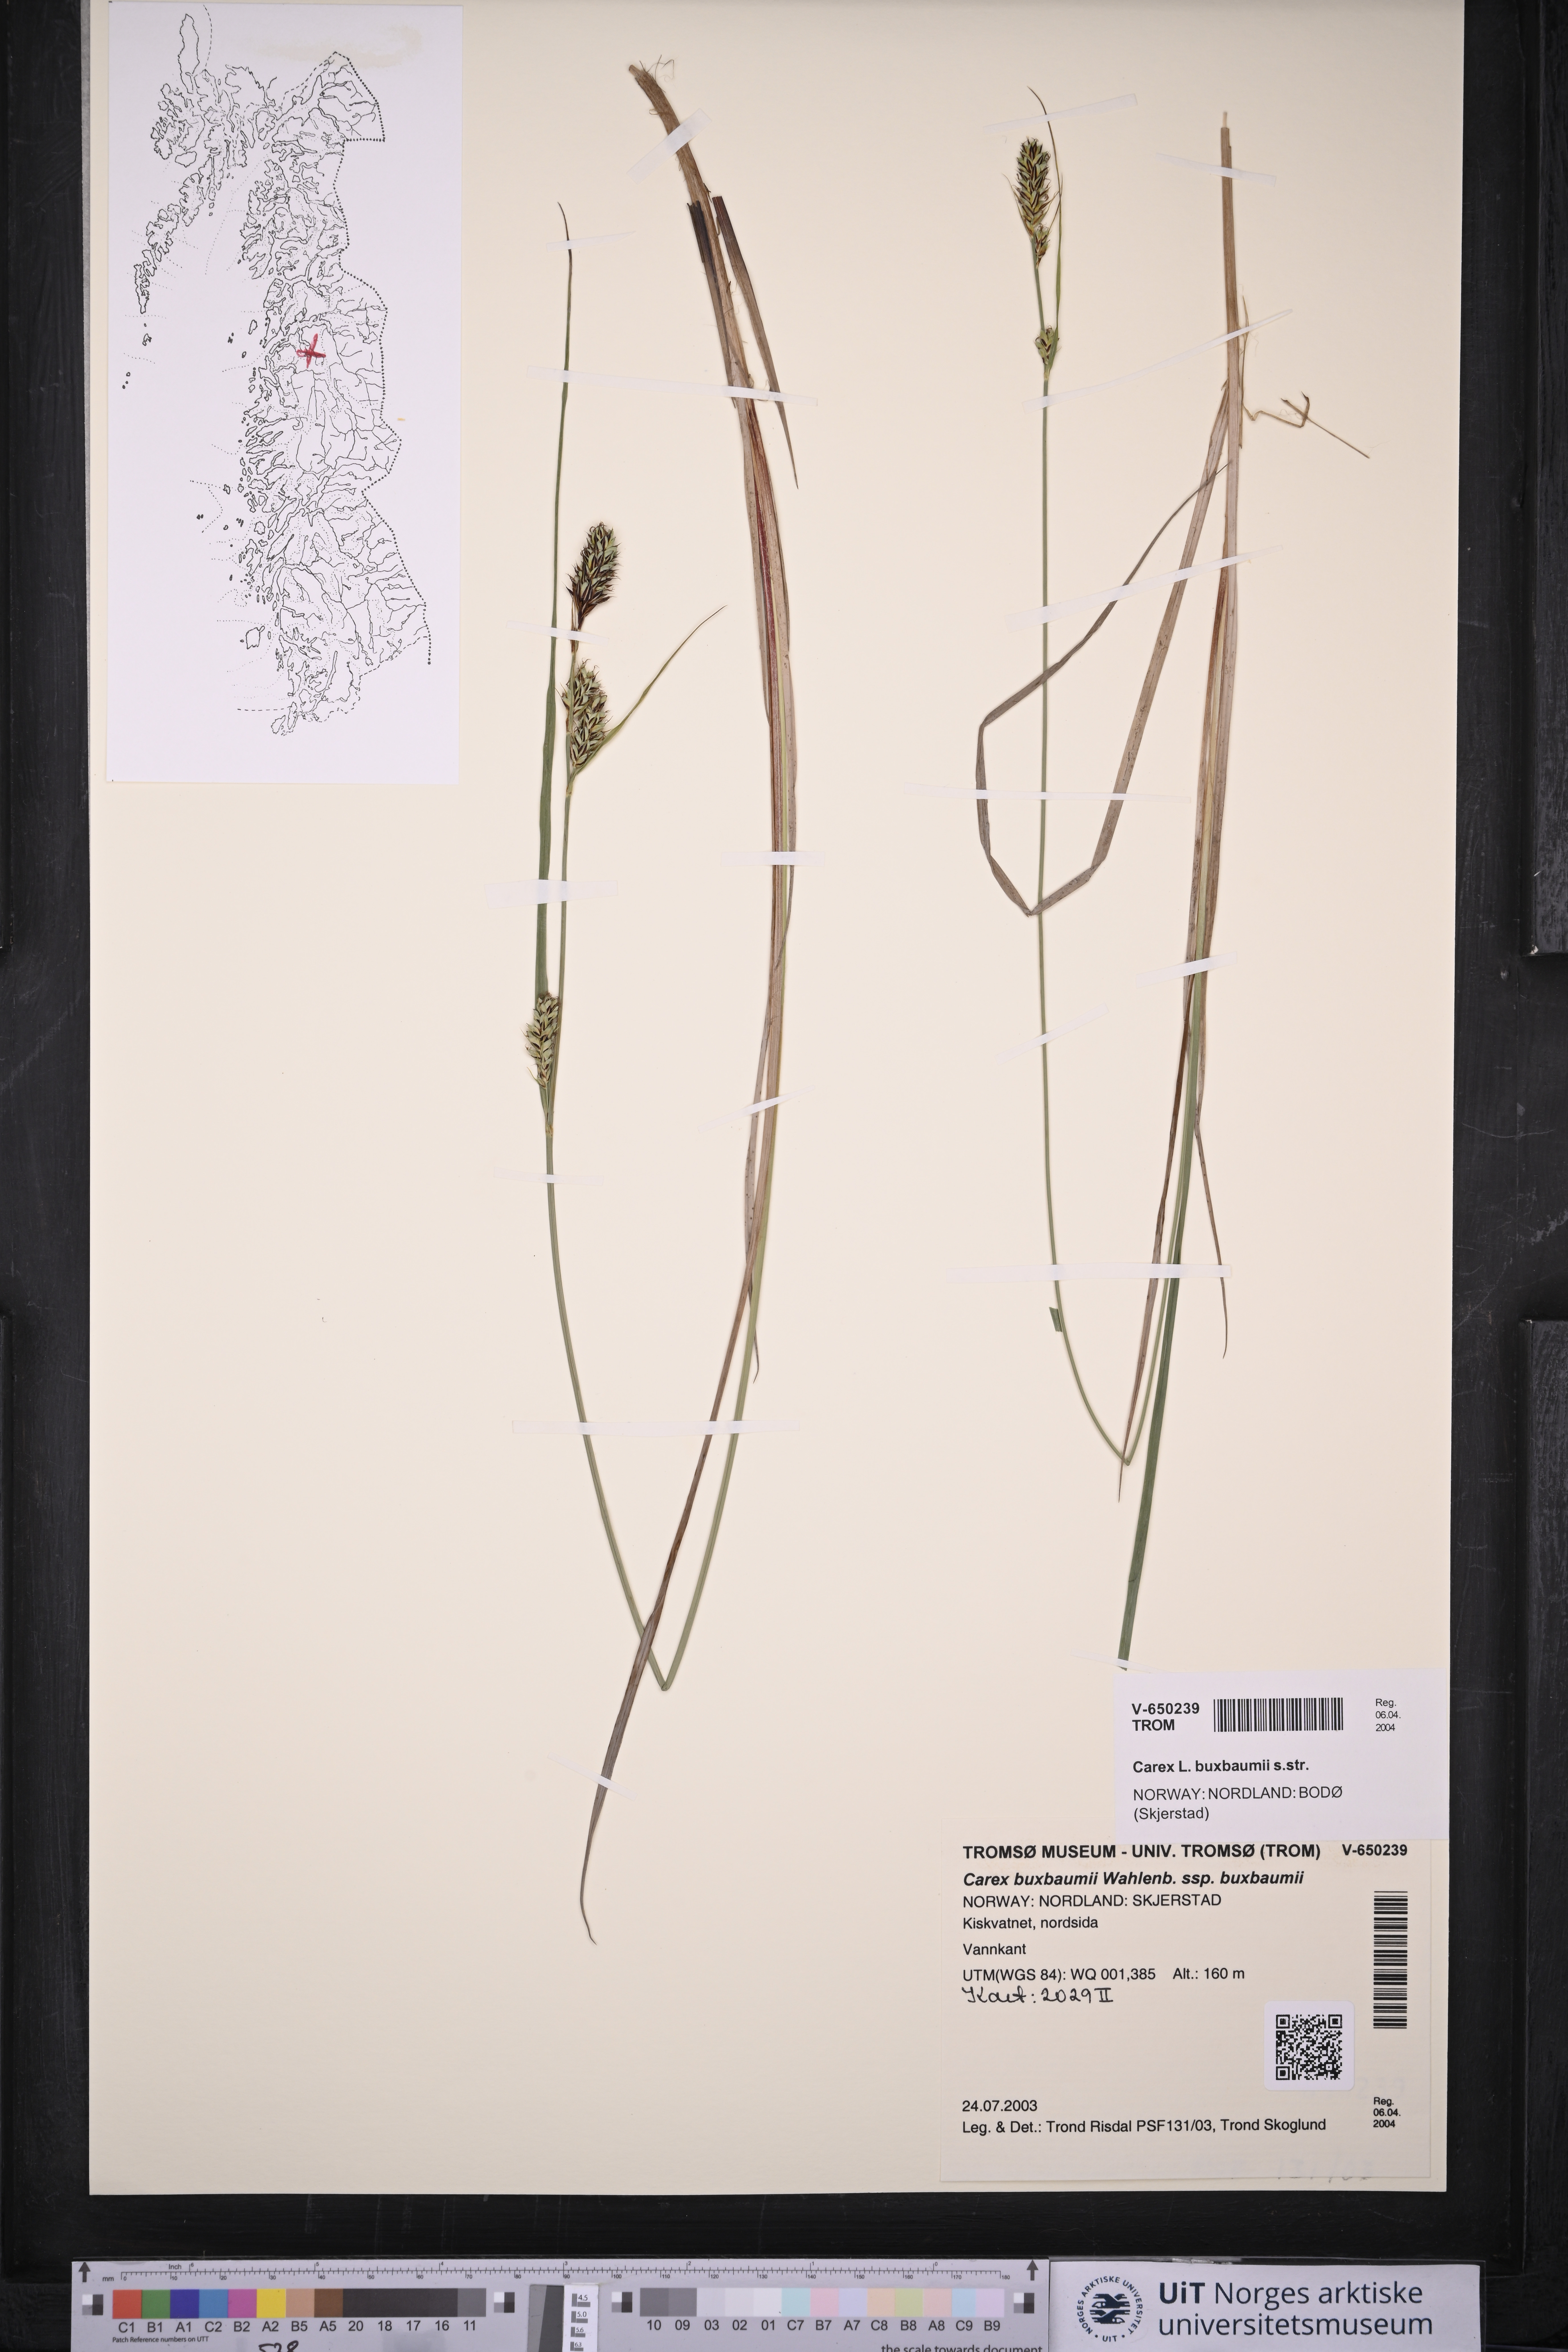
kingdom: Plantae
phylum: Tracheophyta
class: Liliopsida
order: Poales
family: Cyperaceae
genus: Carex
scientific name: Carex buxbaumii
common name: Club sedge
